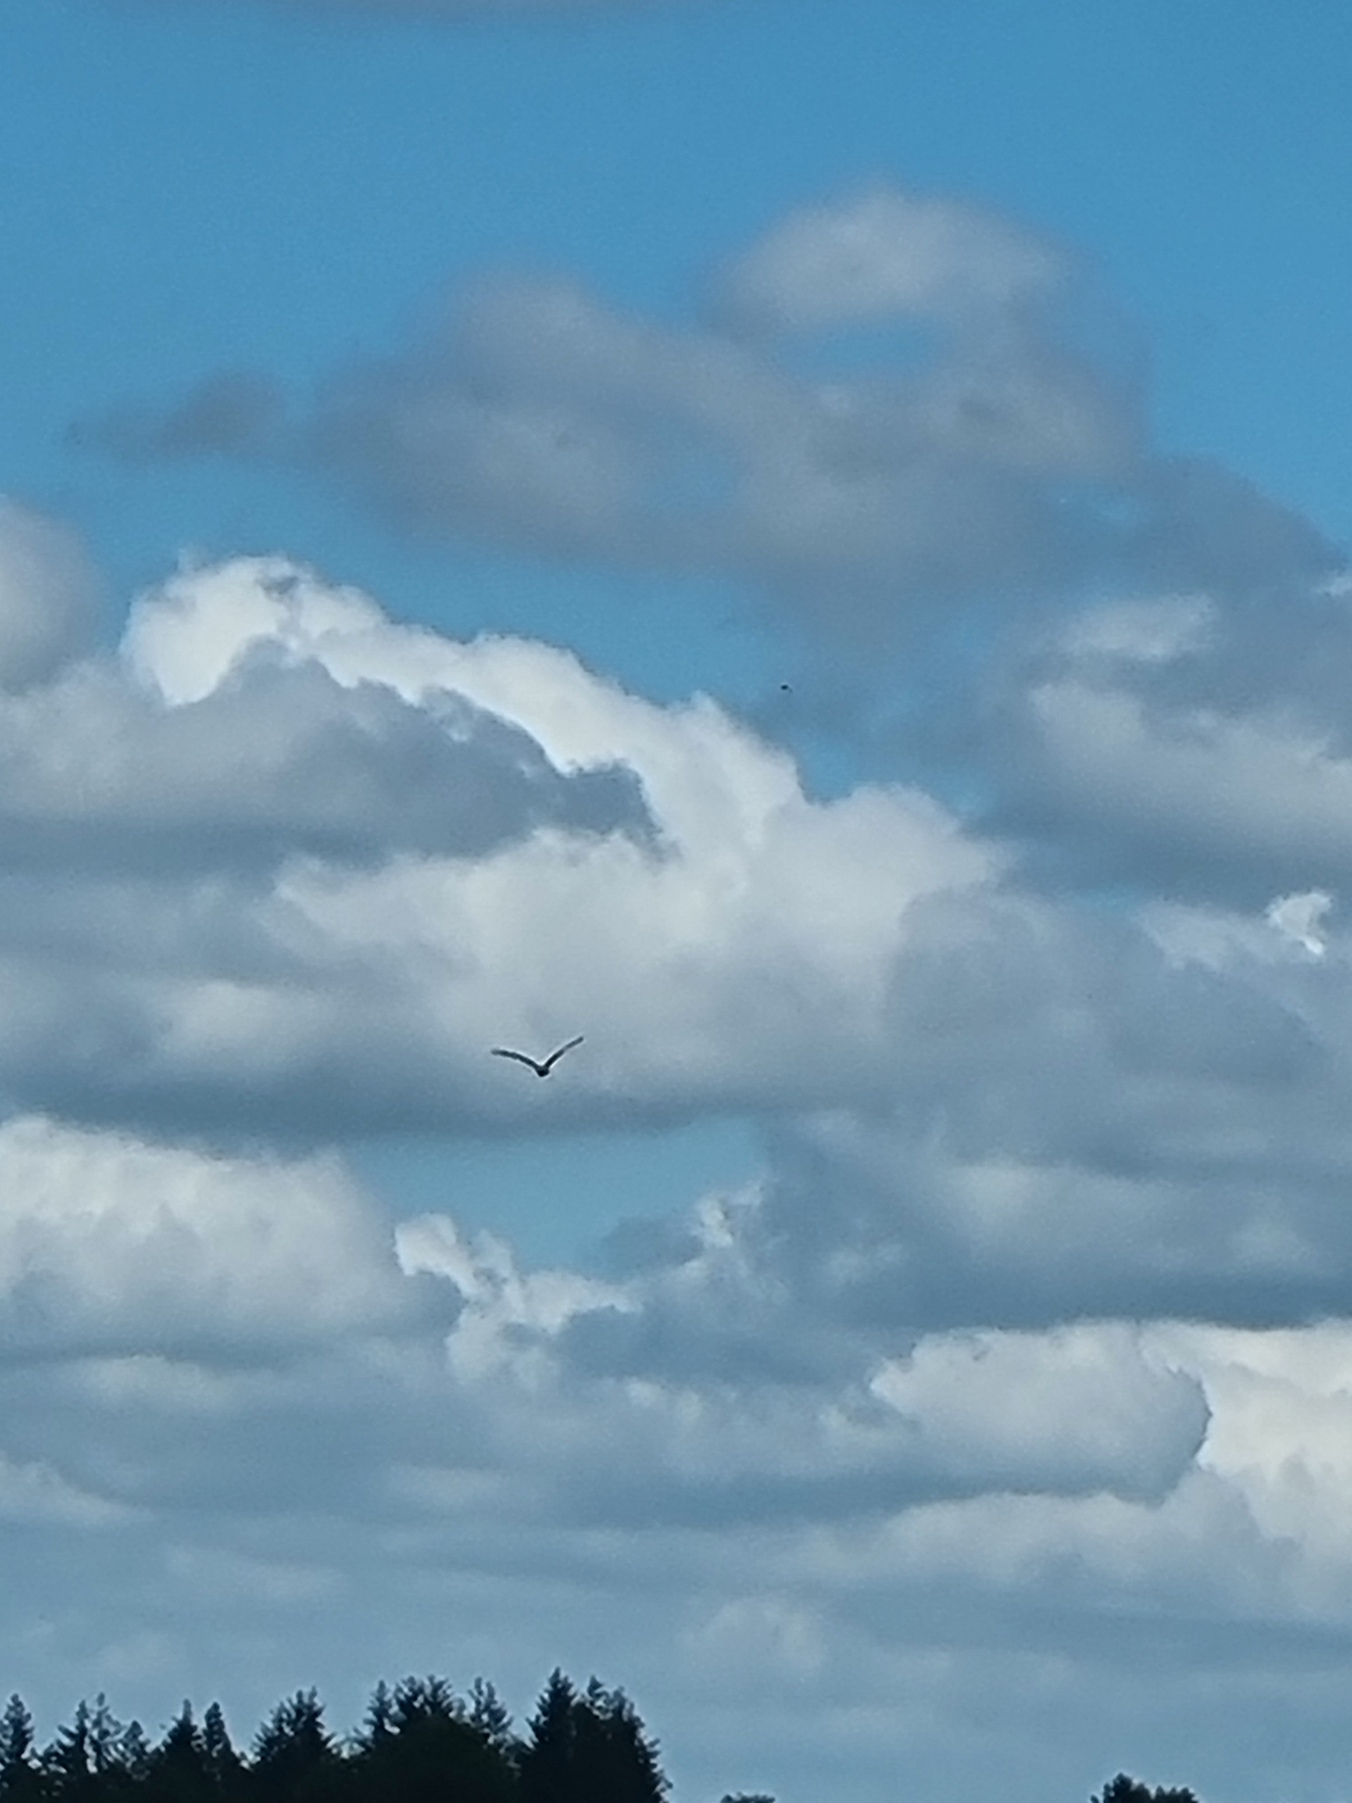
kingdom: Animalia
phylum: Chordata
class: Aves
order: Accipitriformes
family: Accipitridae
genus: Milvus
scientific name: Milvus milvus
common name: Rød glente
